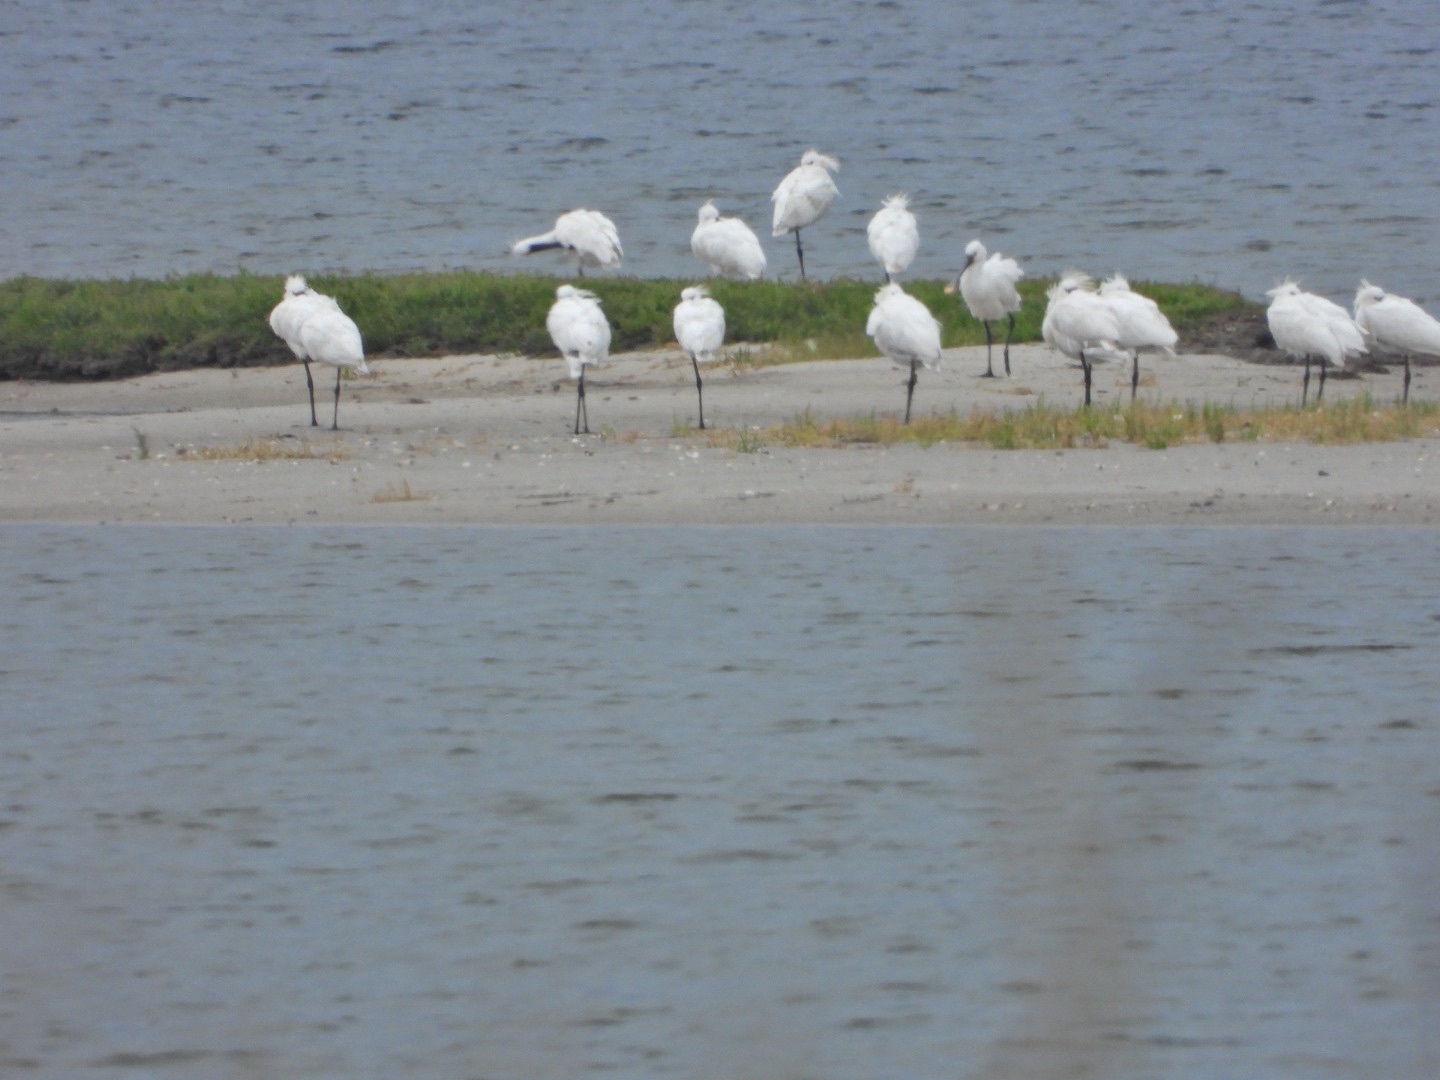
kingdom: Animalia
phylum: Chordata
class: Aves
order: Pelecaniformes
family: Threskiornithidae
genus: Platalea
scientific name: Platalea leucorodia
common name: Skestork
